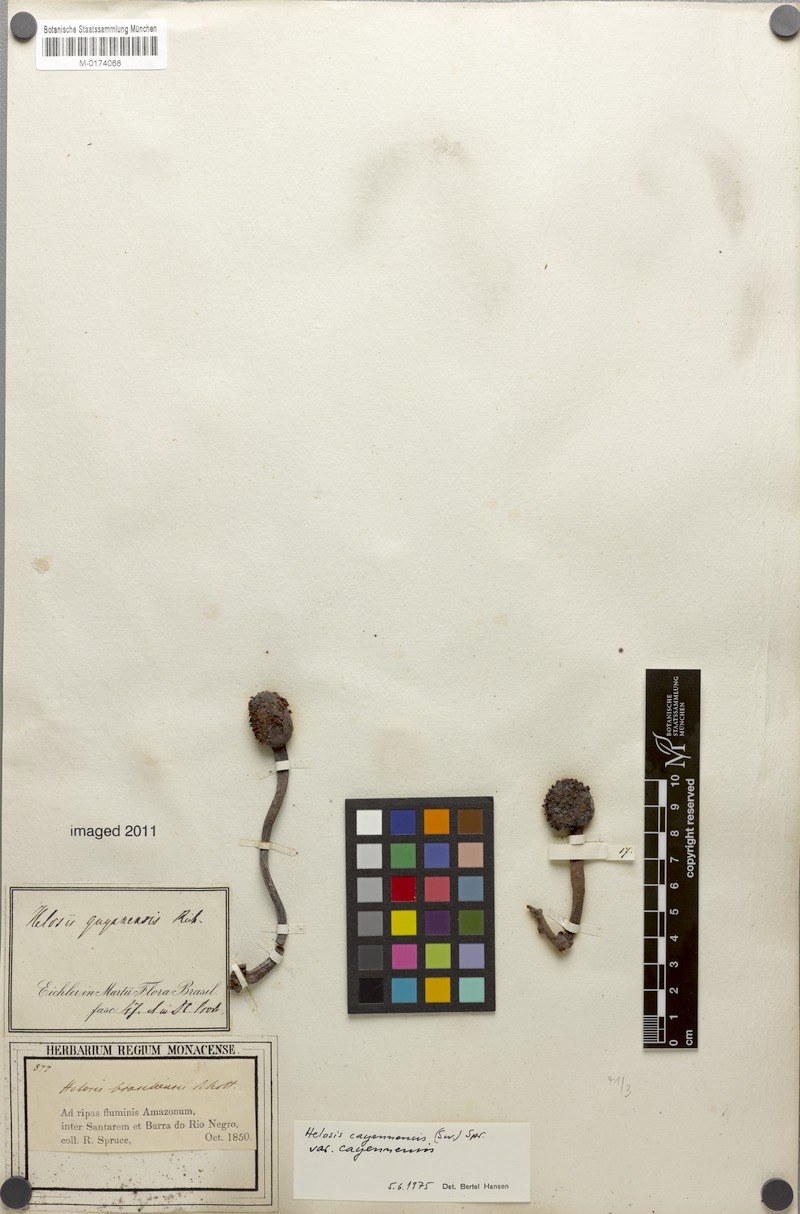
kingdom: Plantae
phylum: Tracheophyta
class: Magnoliopsida
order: Santalales
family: Balanophoraceae
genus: Helosis
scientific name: Helosis cayennensis
